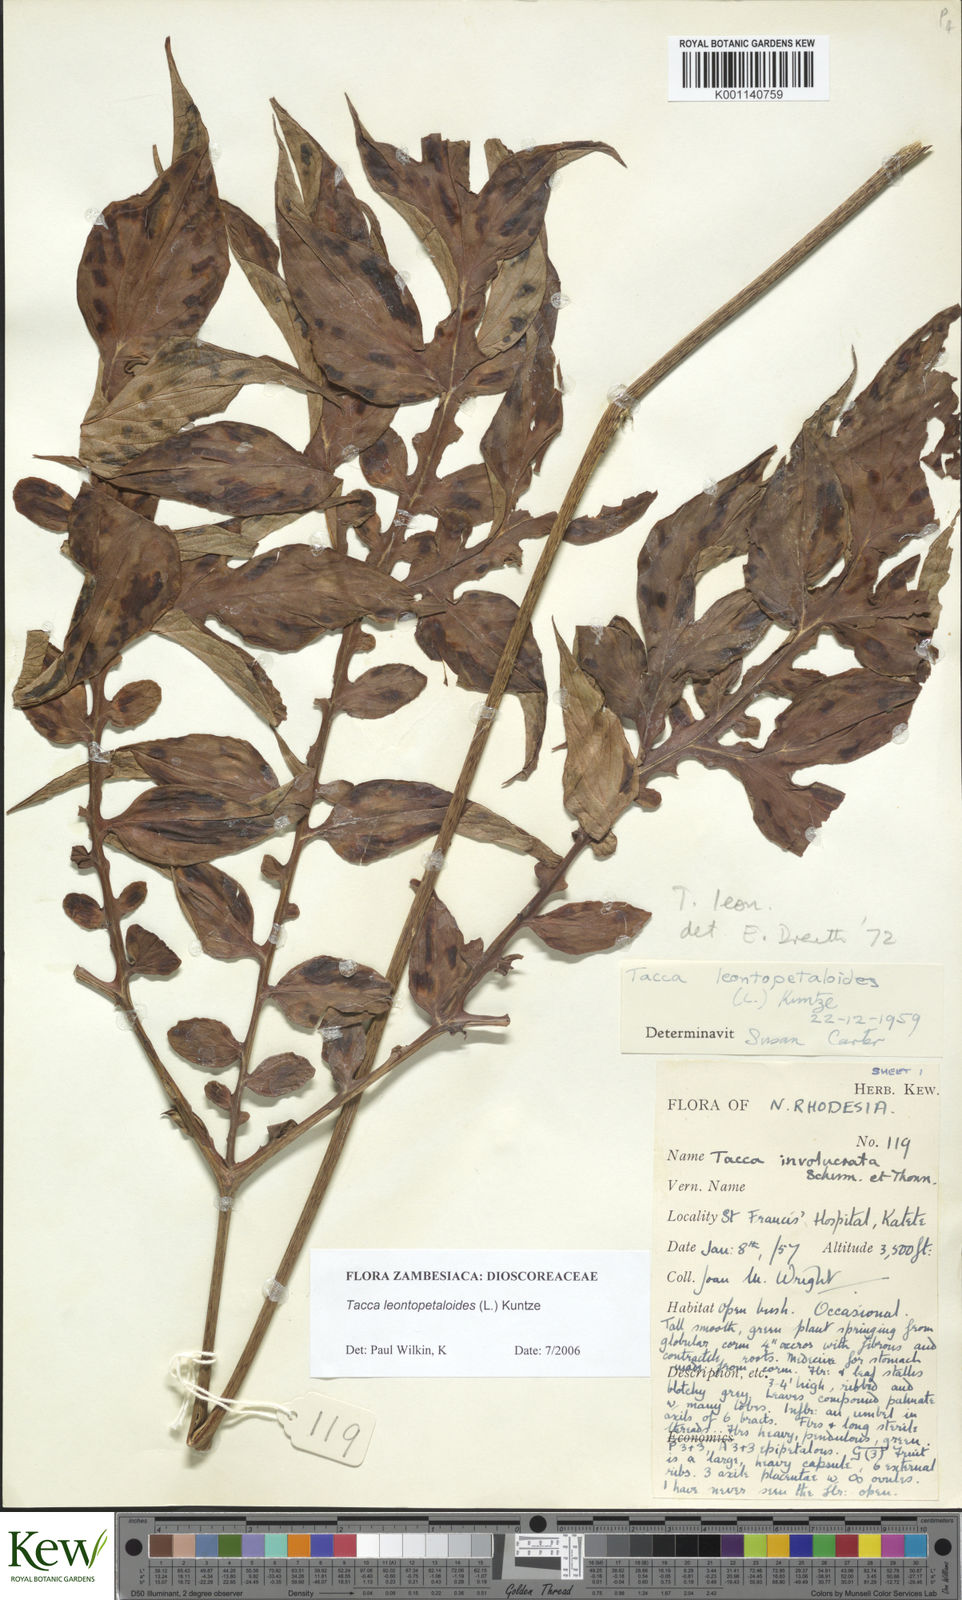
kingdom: Plantae
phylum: Tracheophyta
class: Liliopsida
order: Dioscoreales
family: Dioscoreaceae
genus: Tacca
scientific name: Tacca leontopetaloides
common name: Arrowroot
